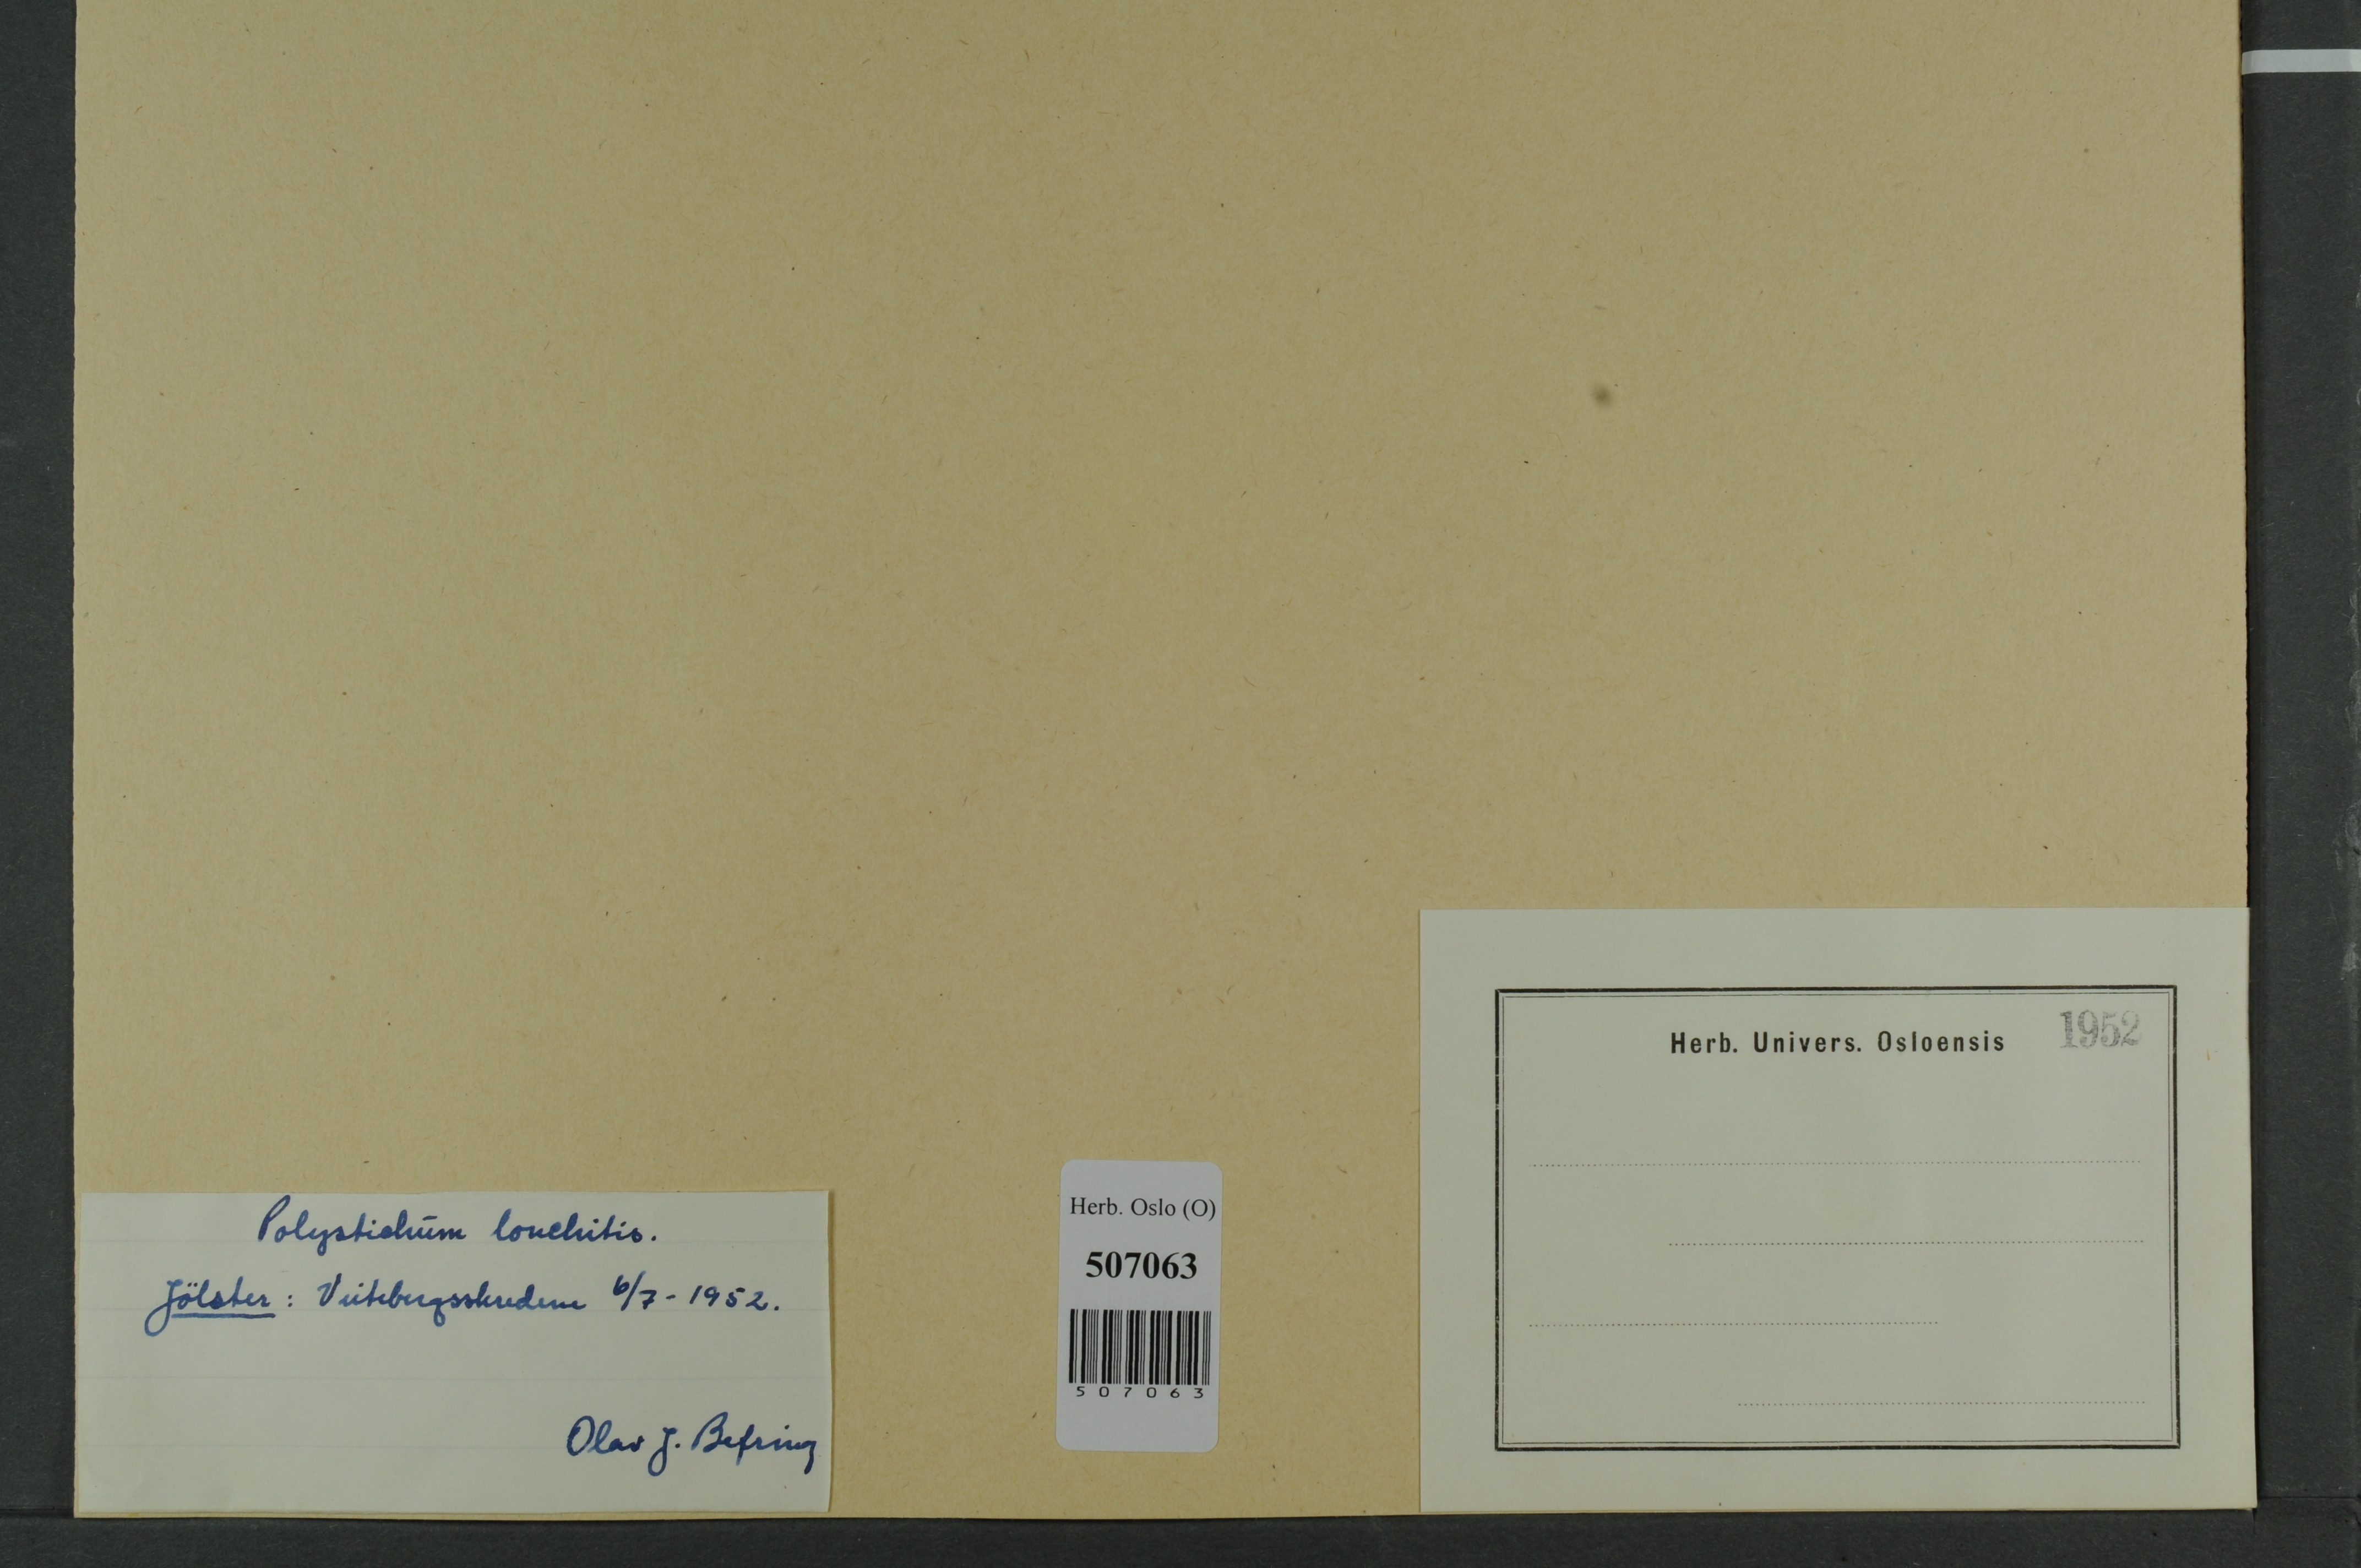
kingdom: Plantae
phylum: Tracheophyta
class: Polypodiopsida
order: Polypodiales
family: Dryopteridaceae
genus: Polystichum
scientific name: Polystichum lonchitis
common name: Holly fern
